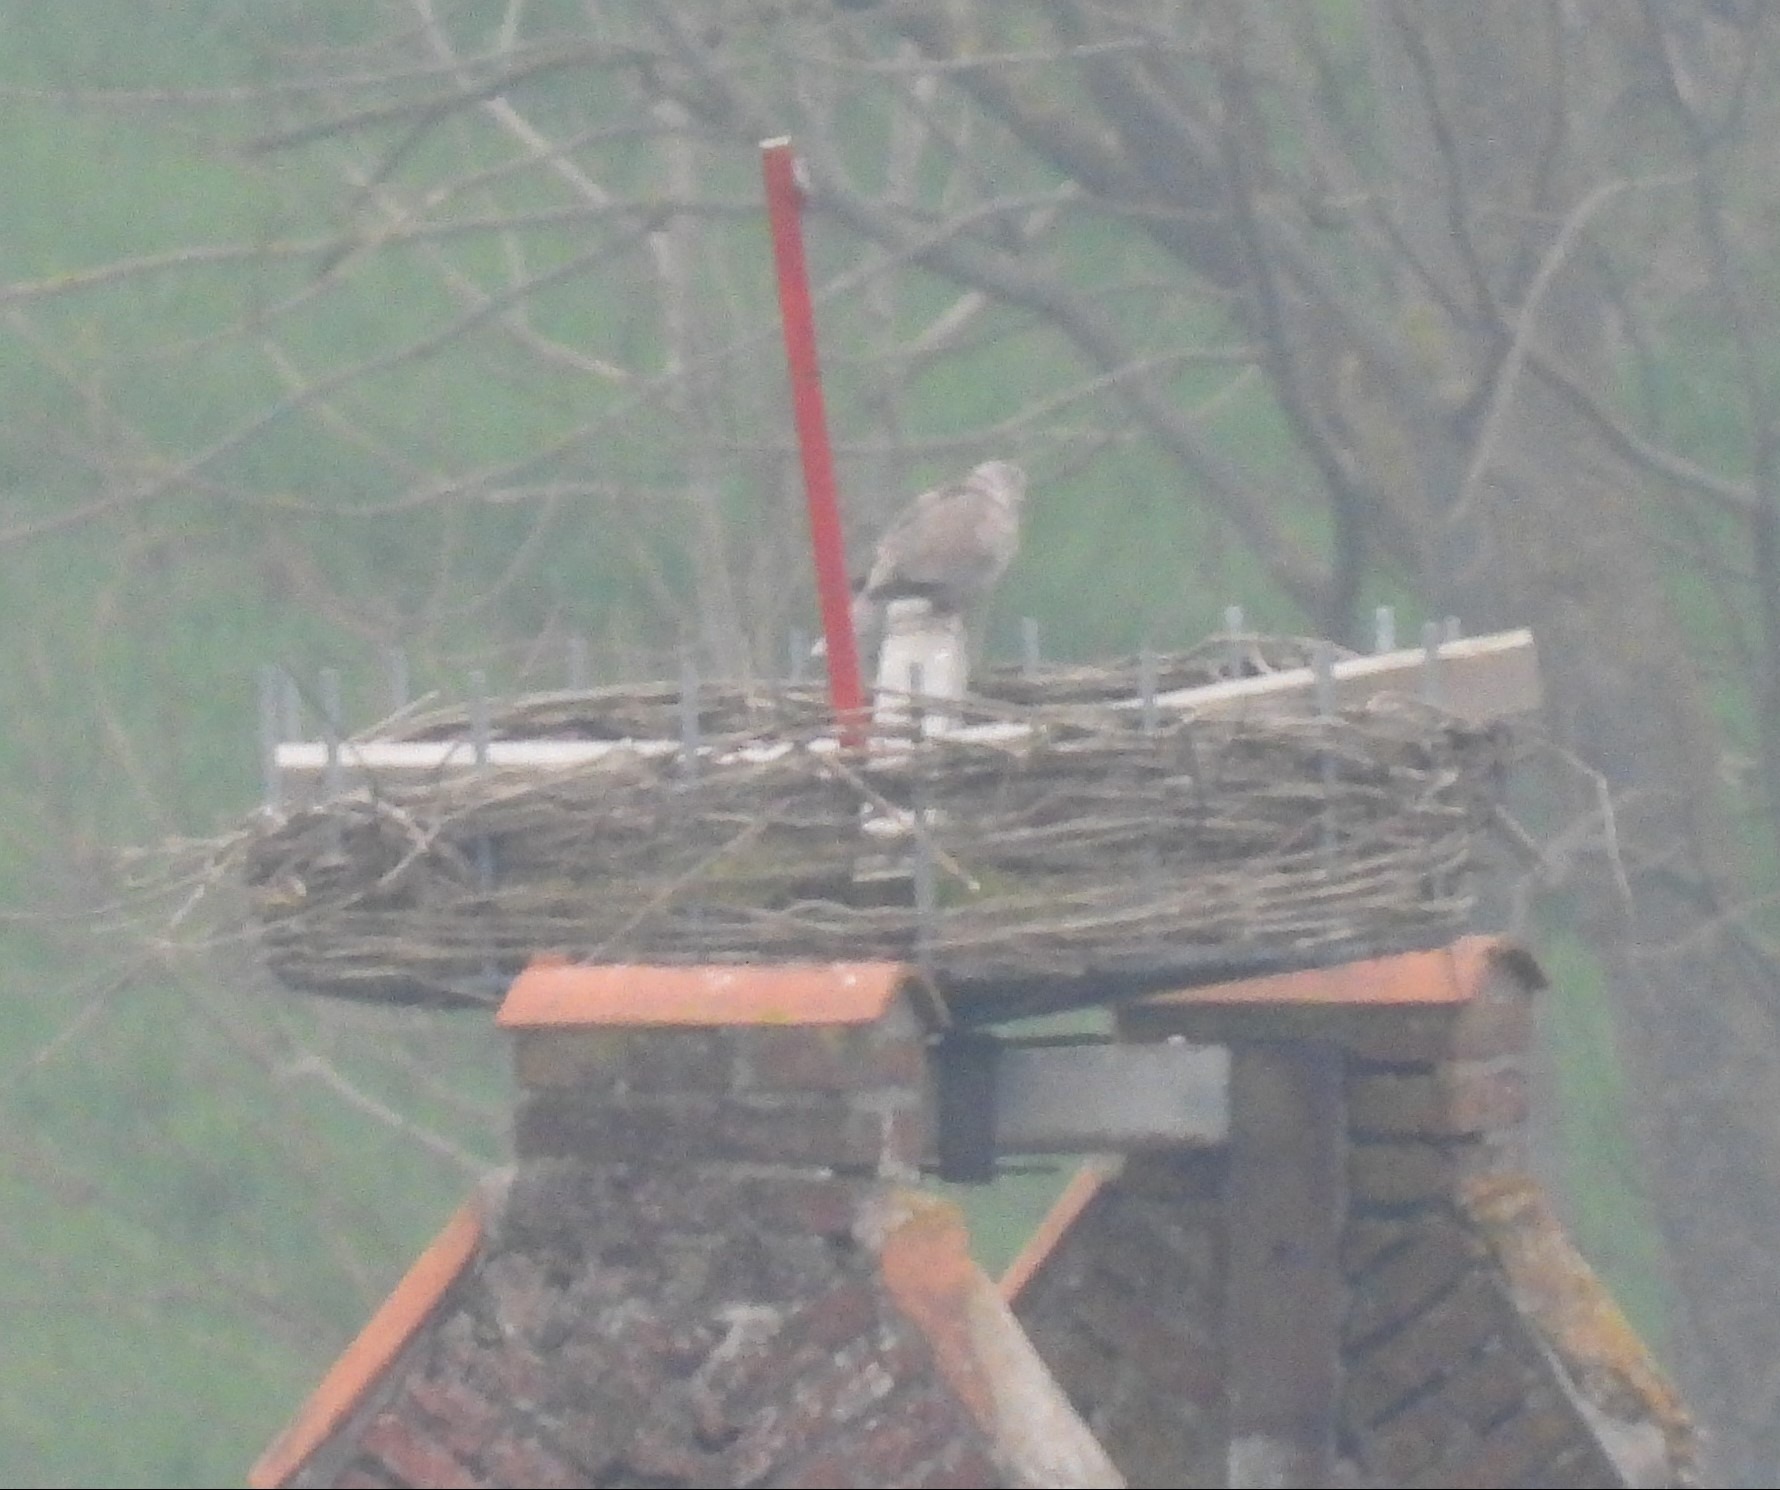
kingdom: Animalia
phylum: Chordata
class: Aves
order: Columbiformes
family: Columbidae
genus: Streptopelia
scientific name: Streptopelia decaocto
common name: Tyrkerdue
